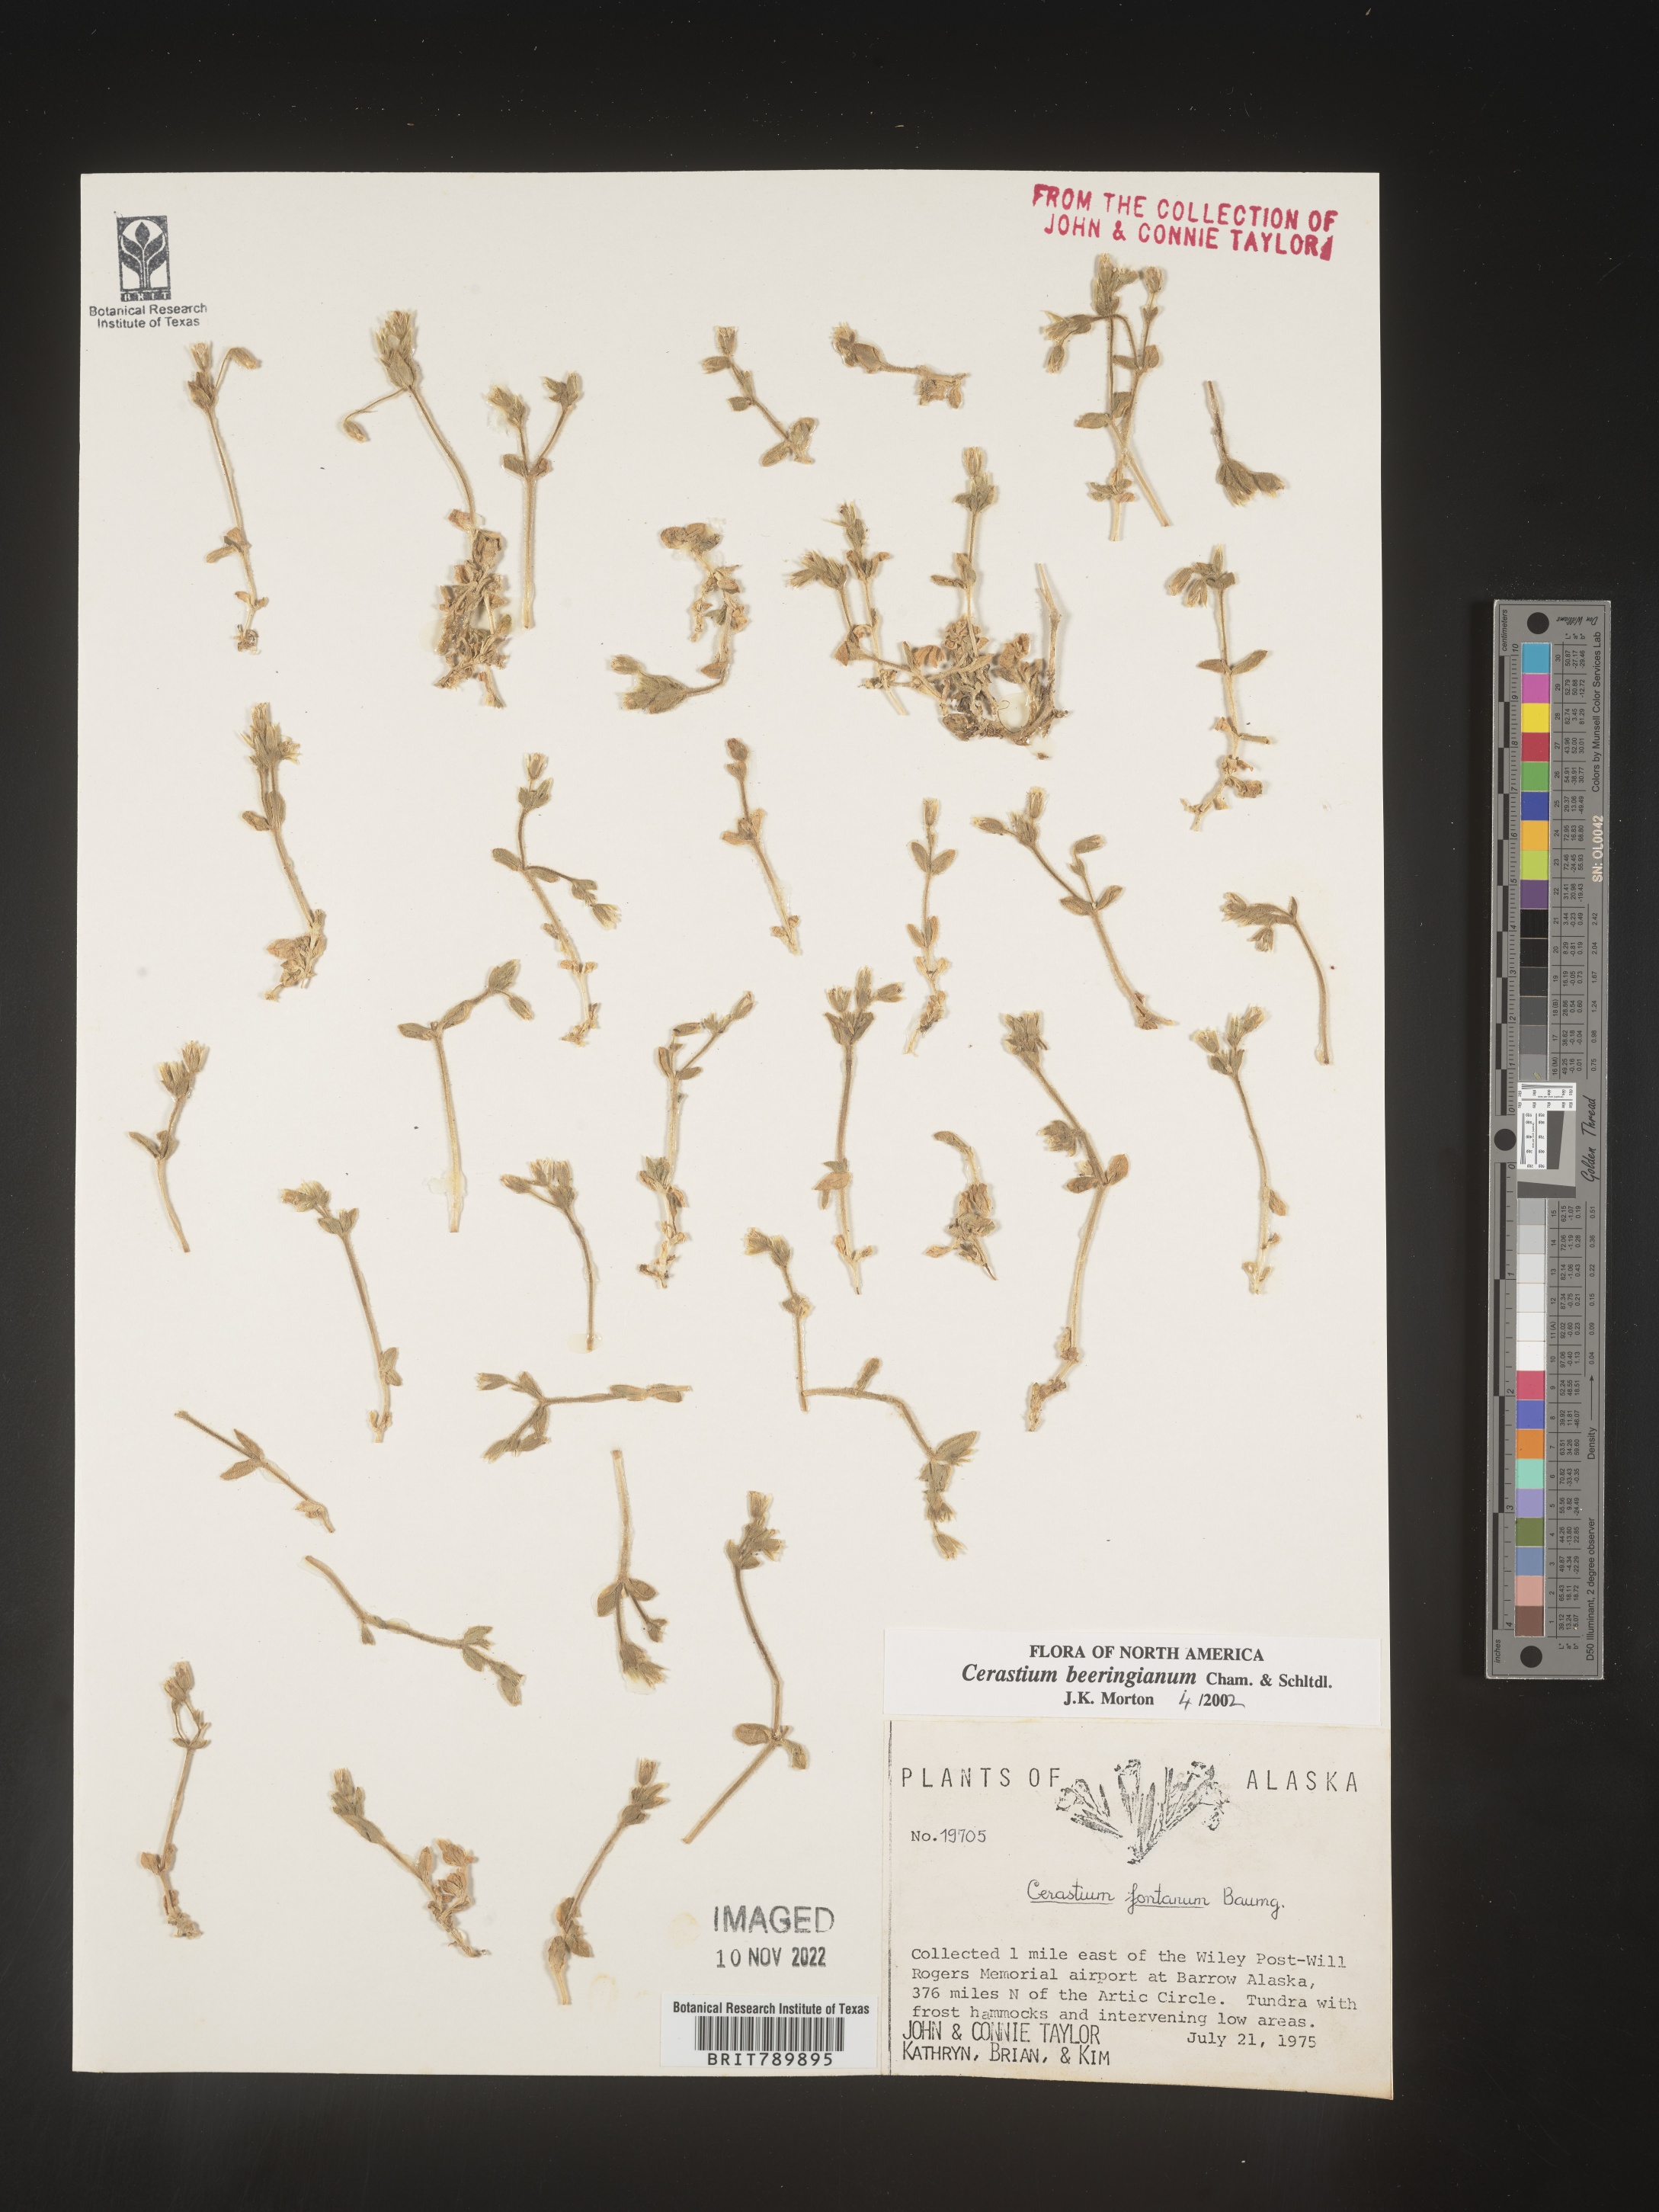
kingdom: Plantae
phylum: Tracheophyta
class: Magnoliopsida
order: Caryophyllales
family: Caryophyllaceae
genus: Cerastium
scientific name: Cerastium beeringianum
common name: Bering mouse-ear chickweed
